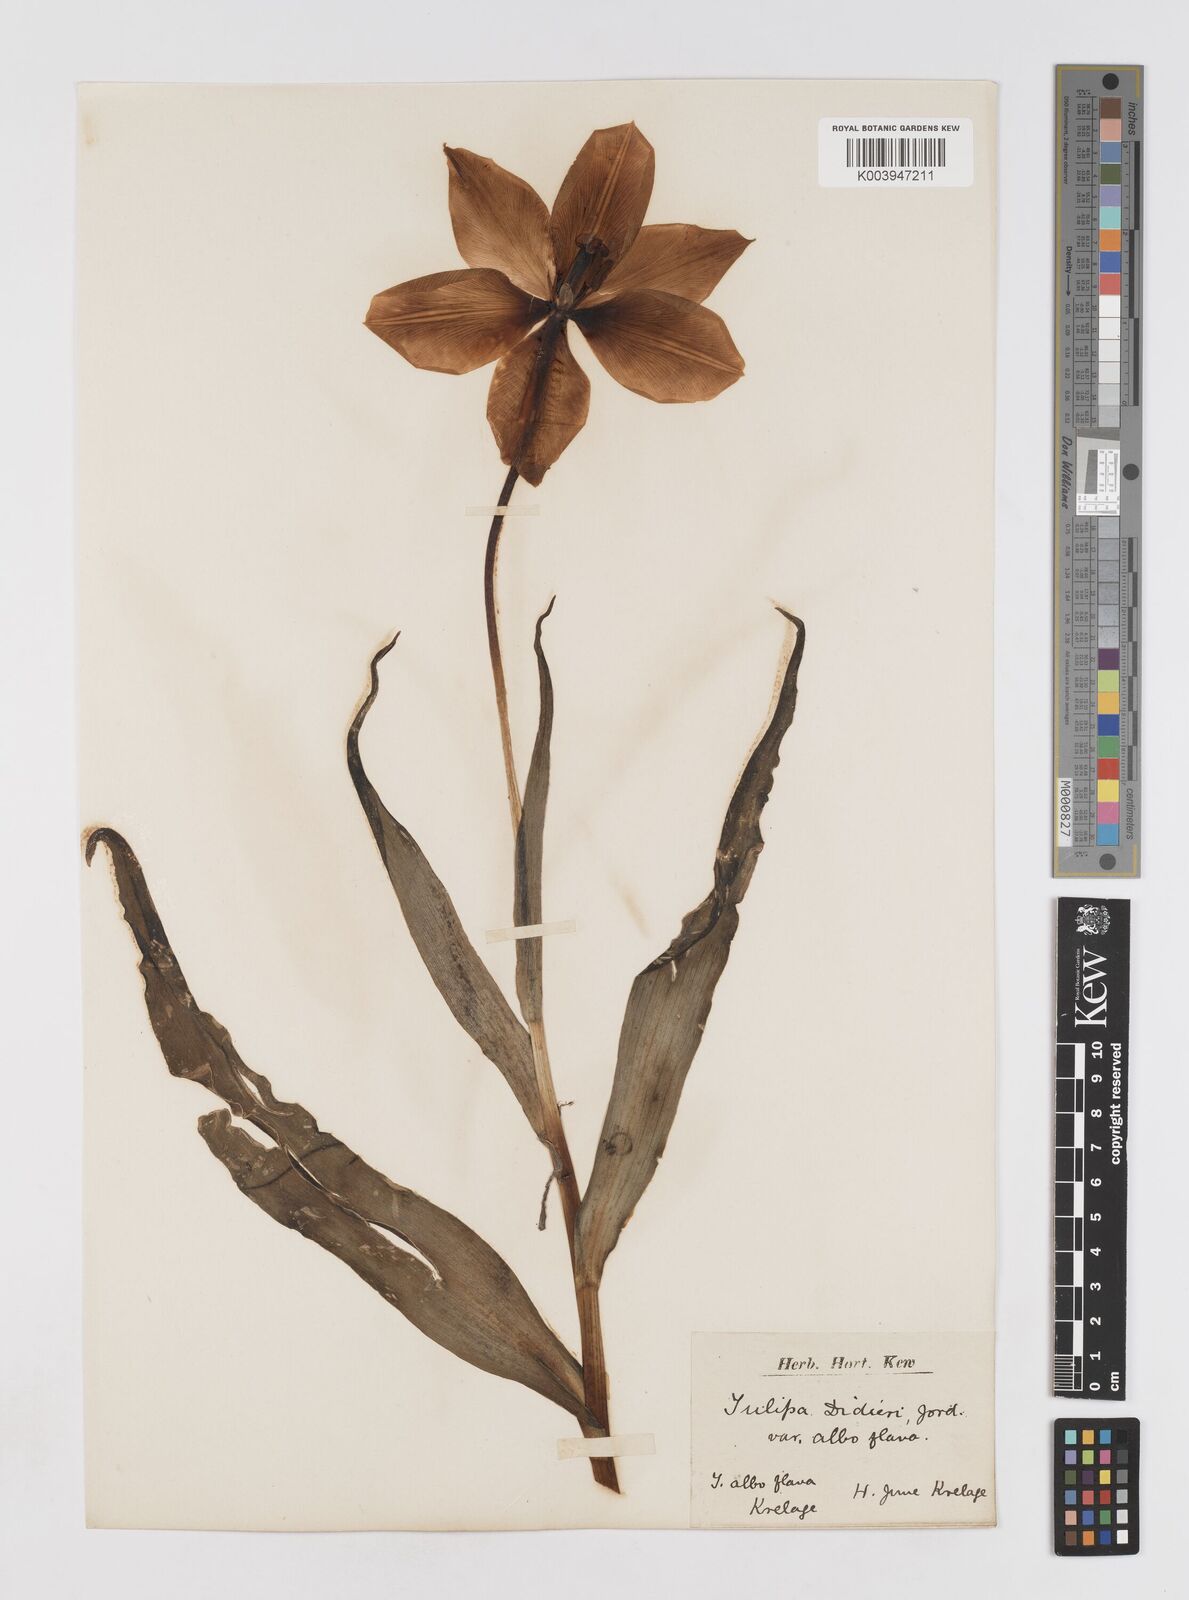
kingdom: Plantae
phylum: Tracheophyta
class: Liliopsida
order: Liliales
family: Liliaceae
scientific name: Liliaceae
